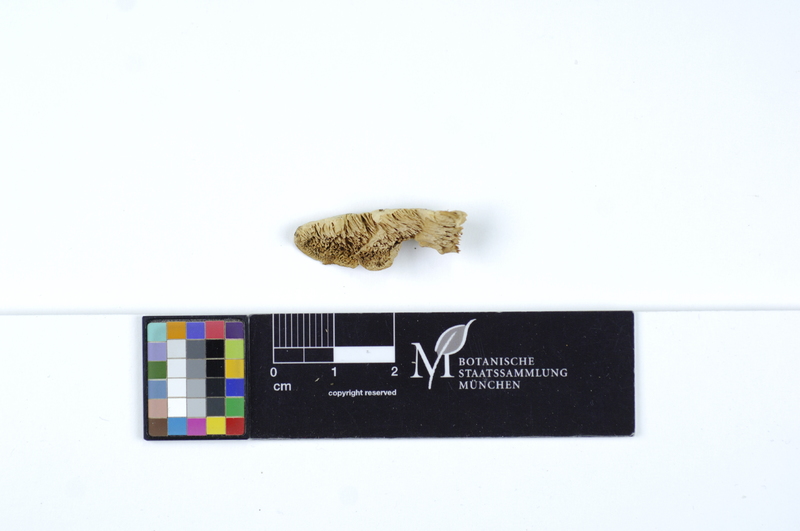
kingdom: Fungi
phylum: Basidiomycota
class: Agaricomycetes
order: Polyporales
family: Cerrenaceae
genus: Cerrena
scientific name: Cerrena zonata
